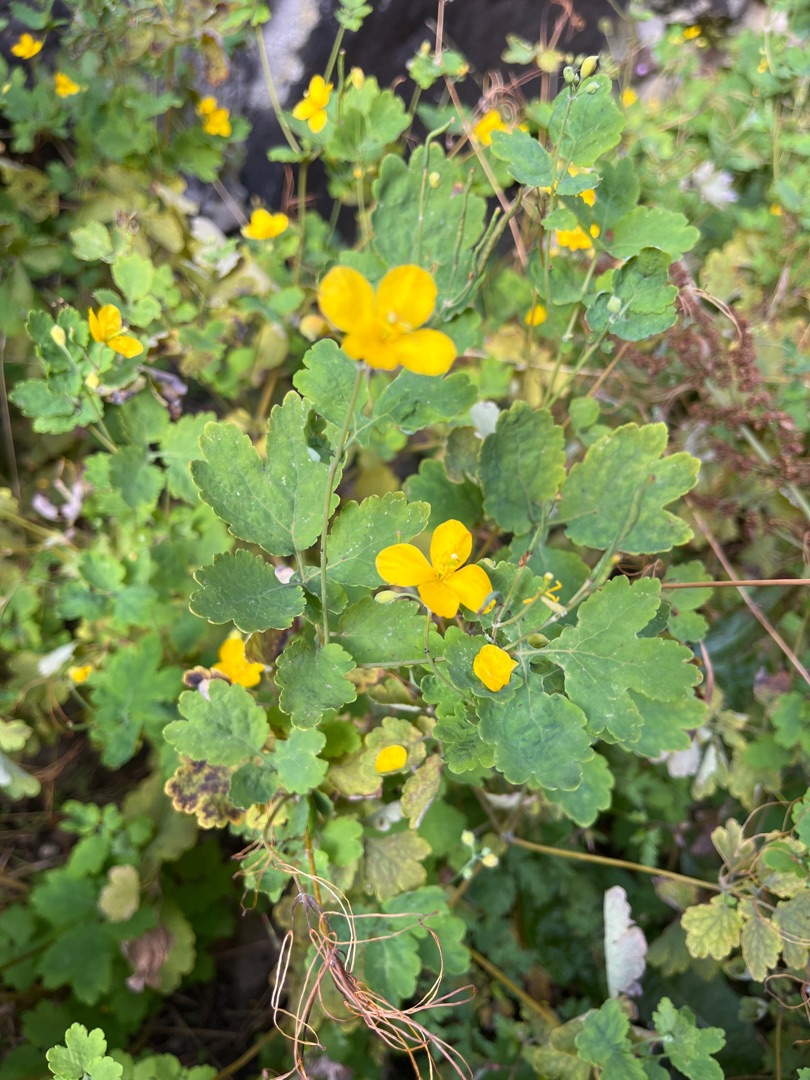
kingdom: Plantae
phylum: Tracheophyta
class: Magnoliopsida
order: Ranunculales
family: Papaveraceae
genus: Chelidonium
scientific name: Chelidonium majus
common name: Svaleurt
